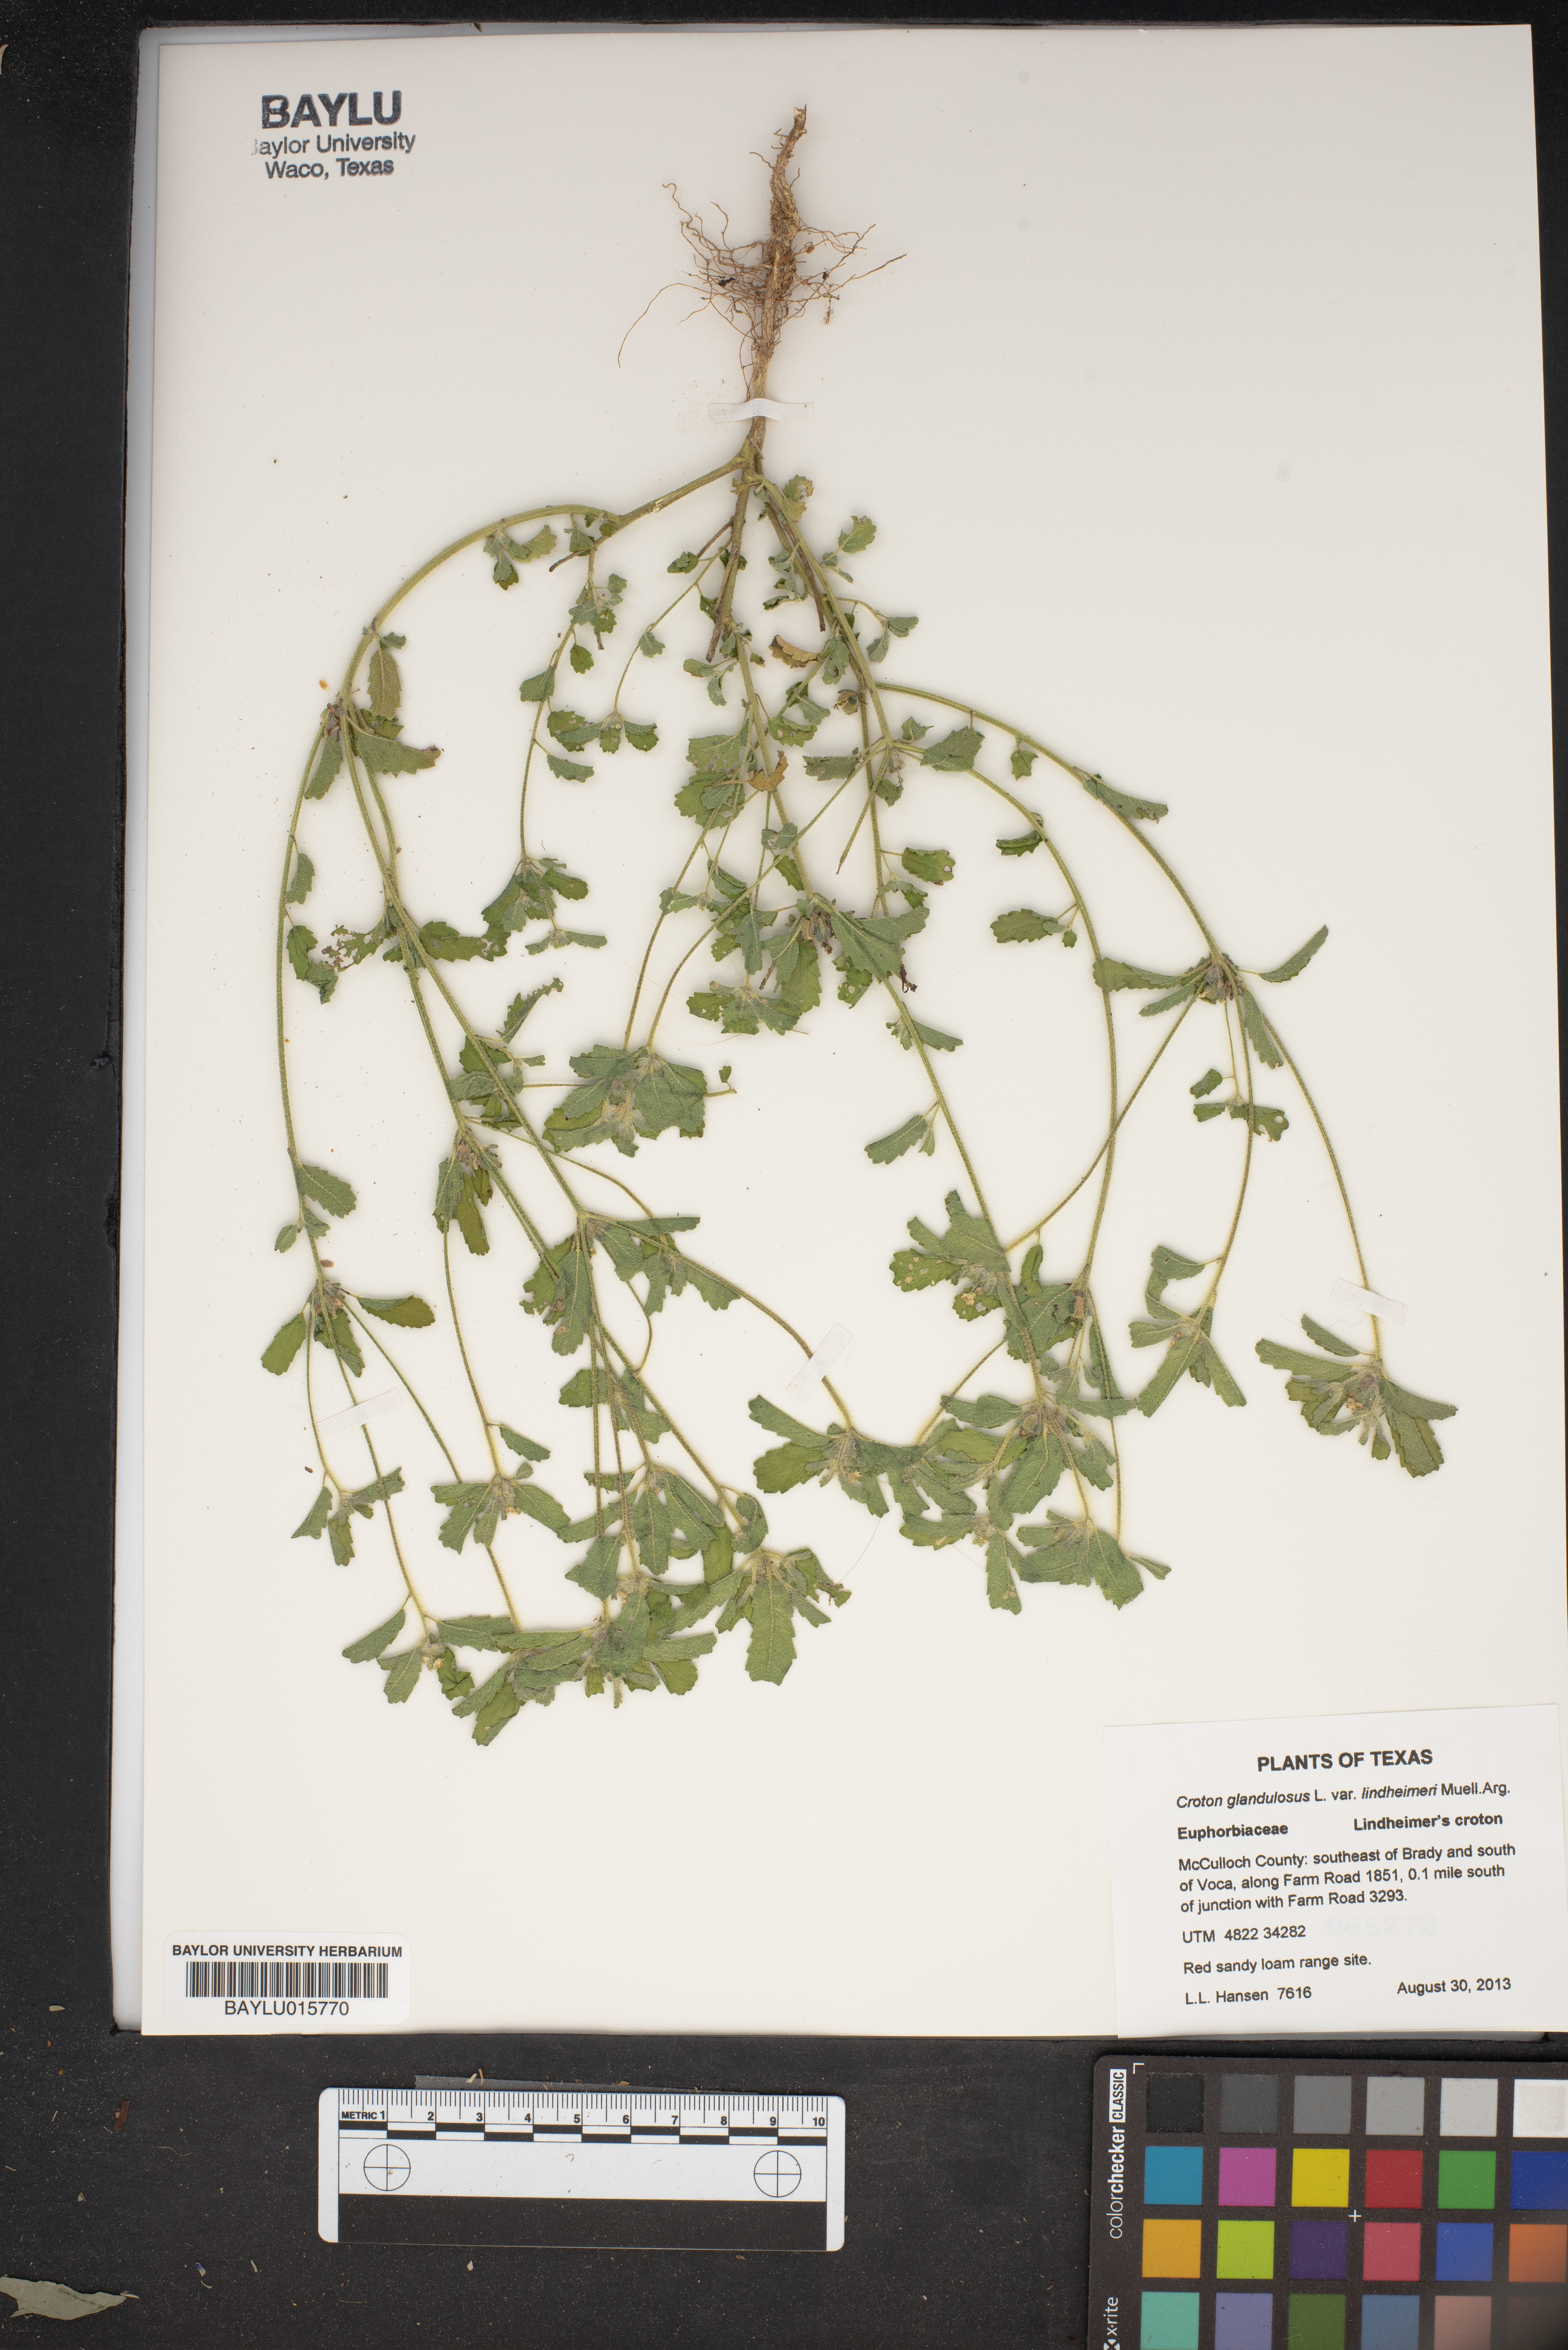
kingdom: Plantae
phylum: Tracheophyta
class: Magnoliopsida
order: Malpighiales
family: Euphorbiaceae
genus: Croton
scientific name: Croton glandulosus
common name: Tropic croton
